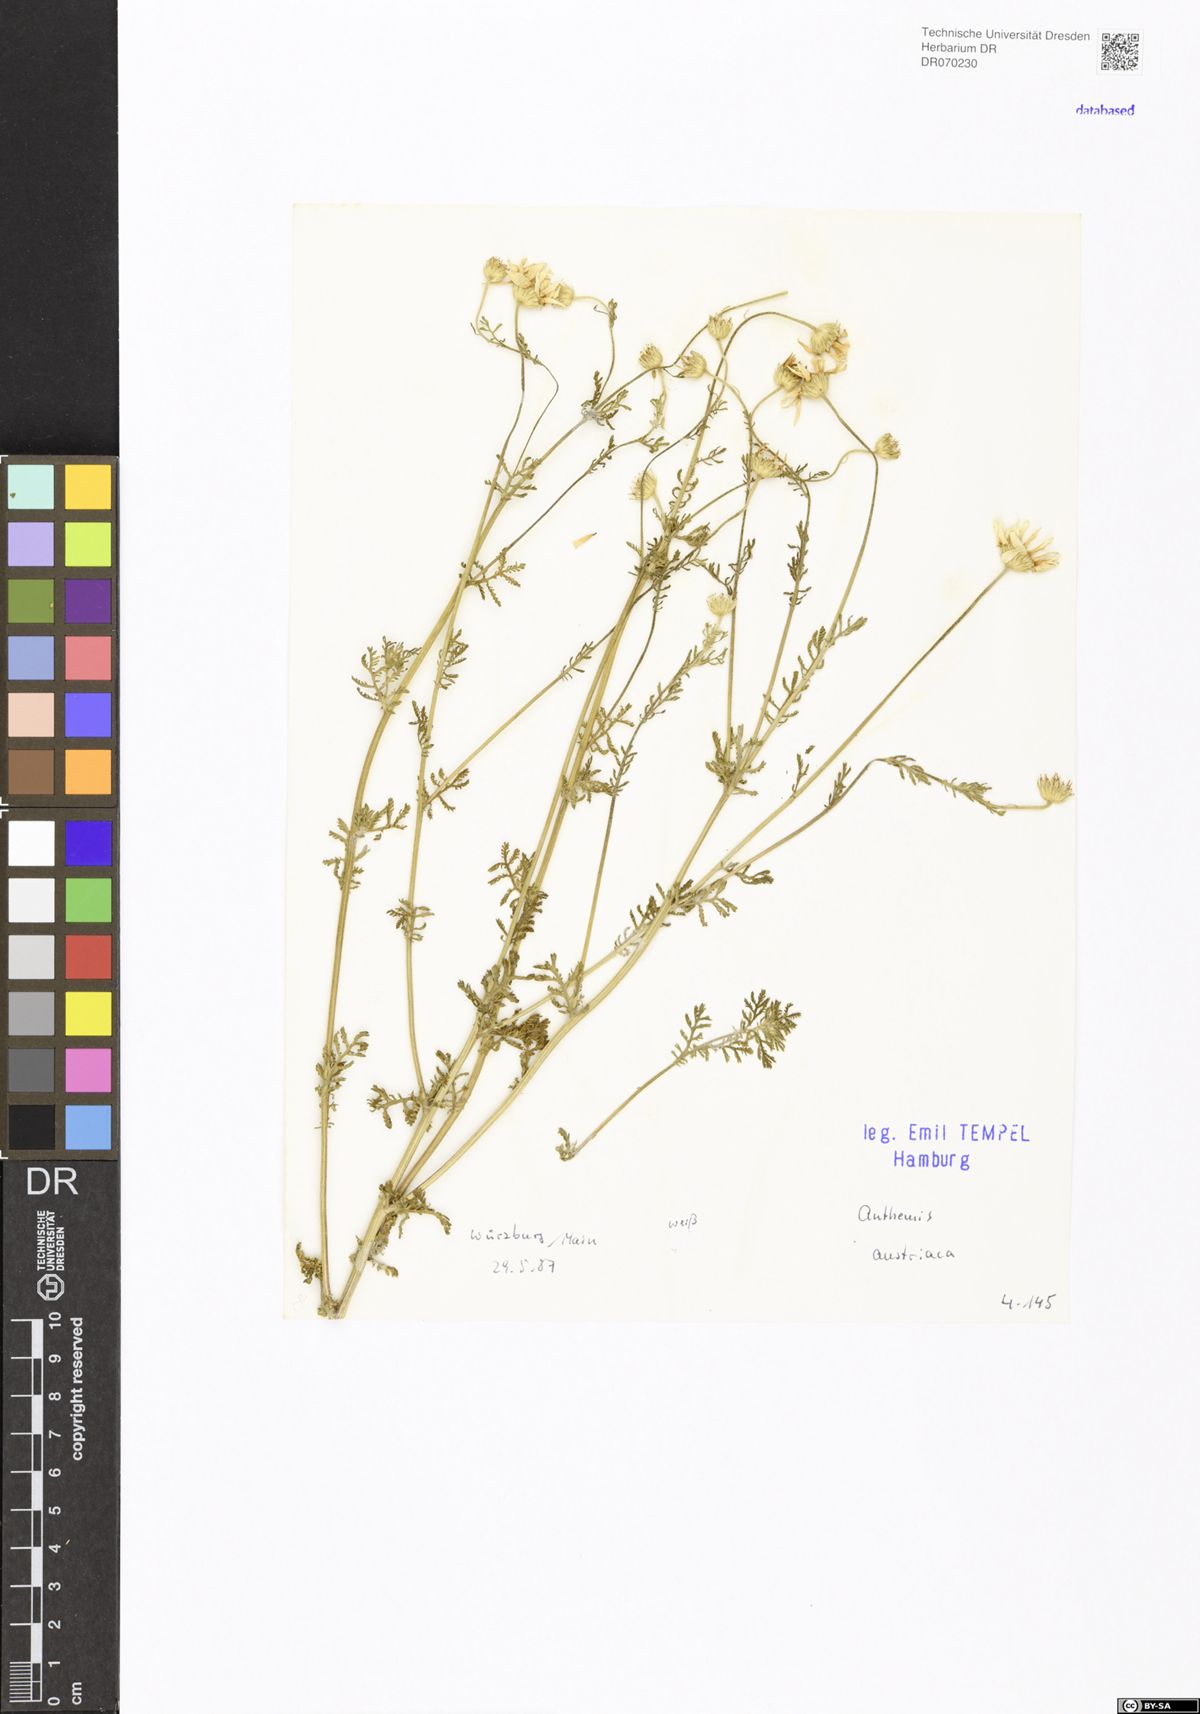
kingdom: Plantae
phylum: Tracheophyta
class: Magnoliopsida
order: Asterales
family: Asteraceae
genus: Cota
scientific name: Cota austriaca
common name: Austrian chamomile
